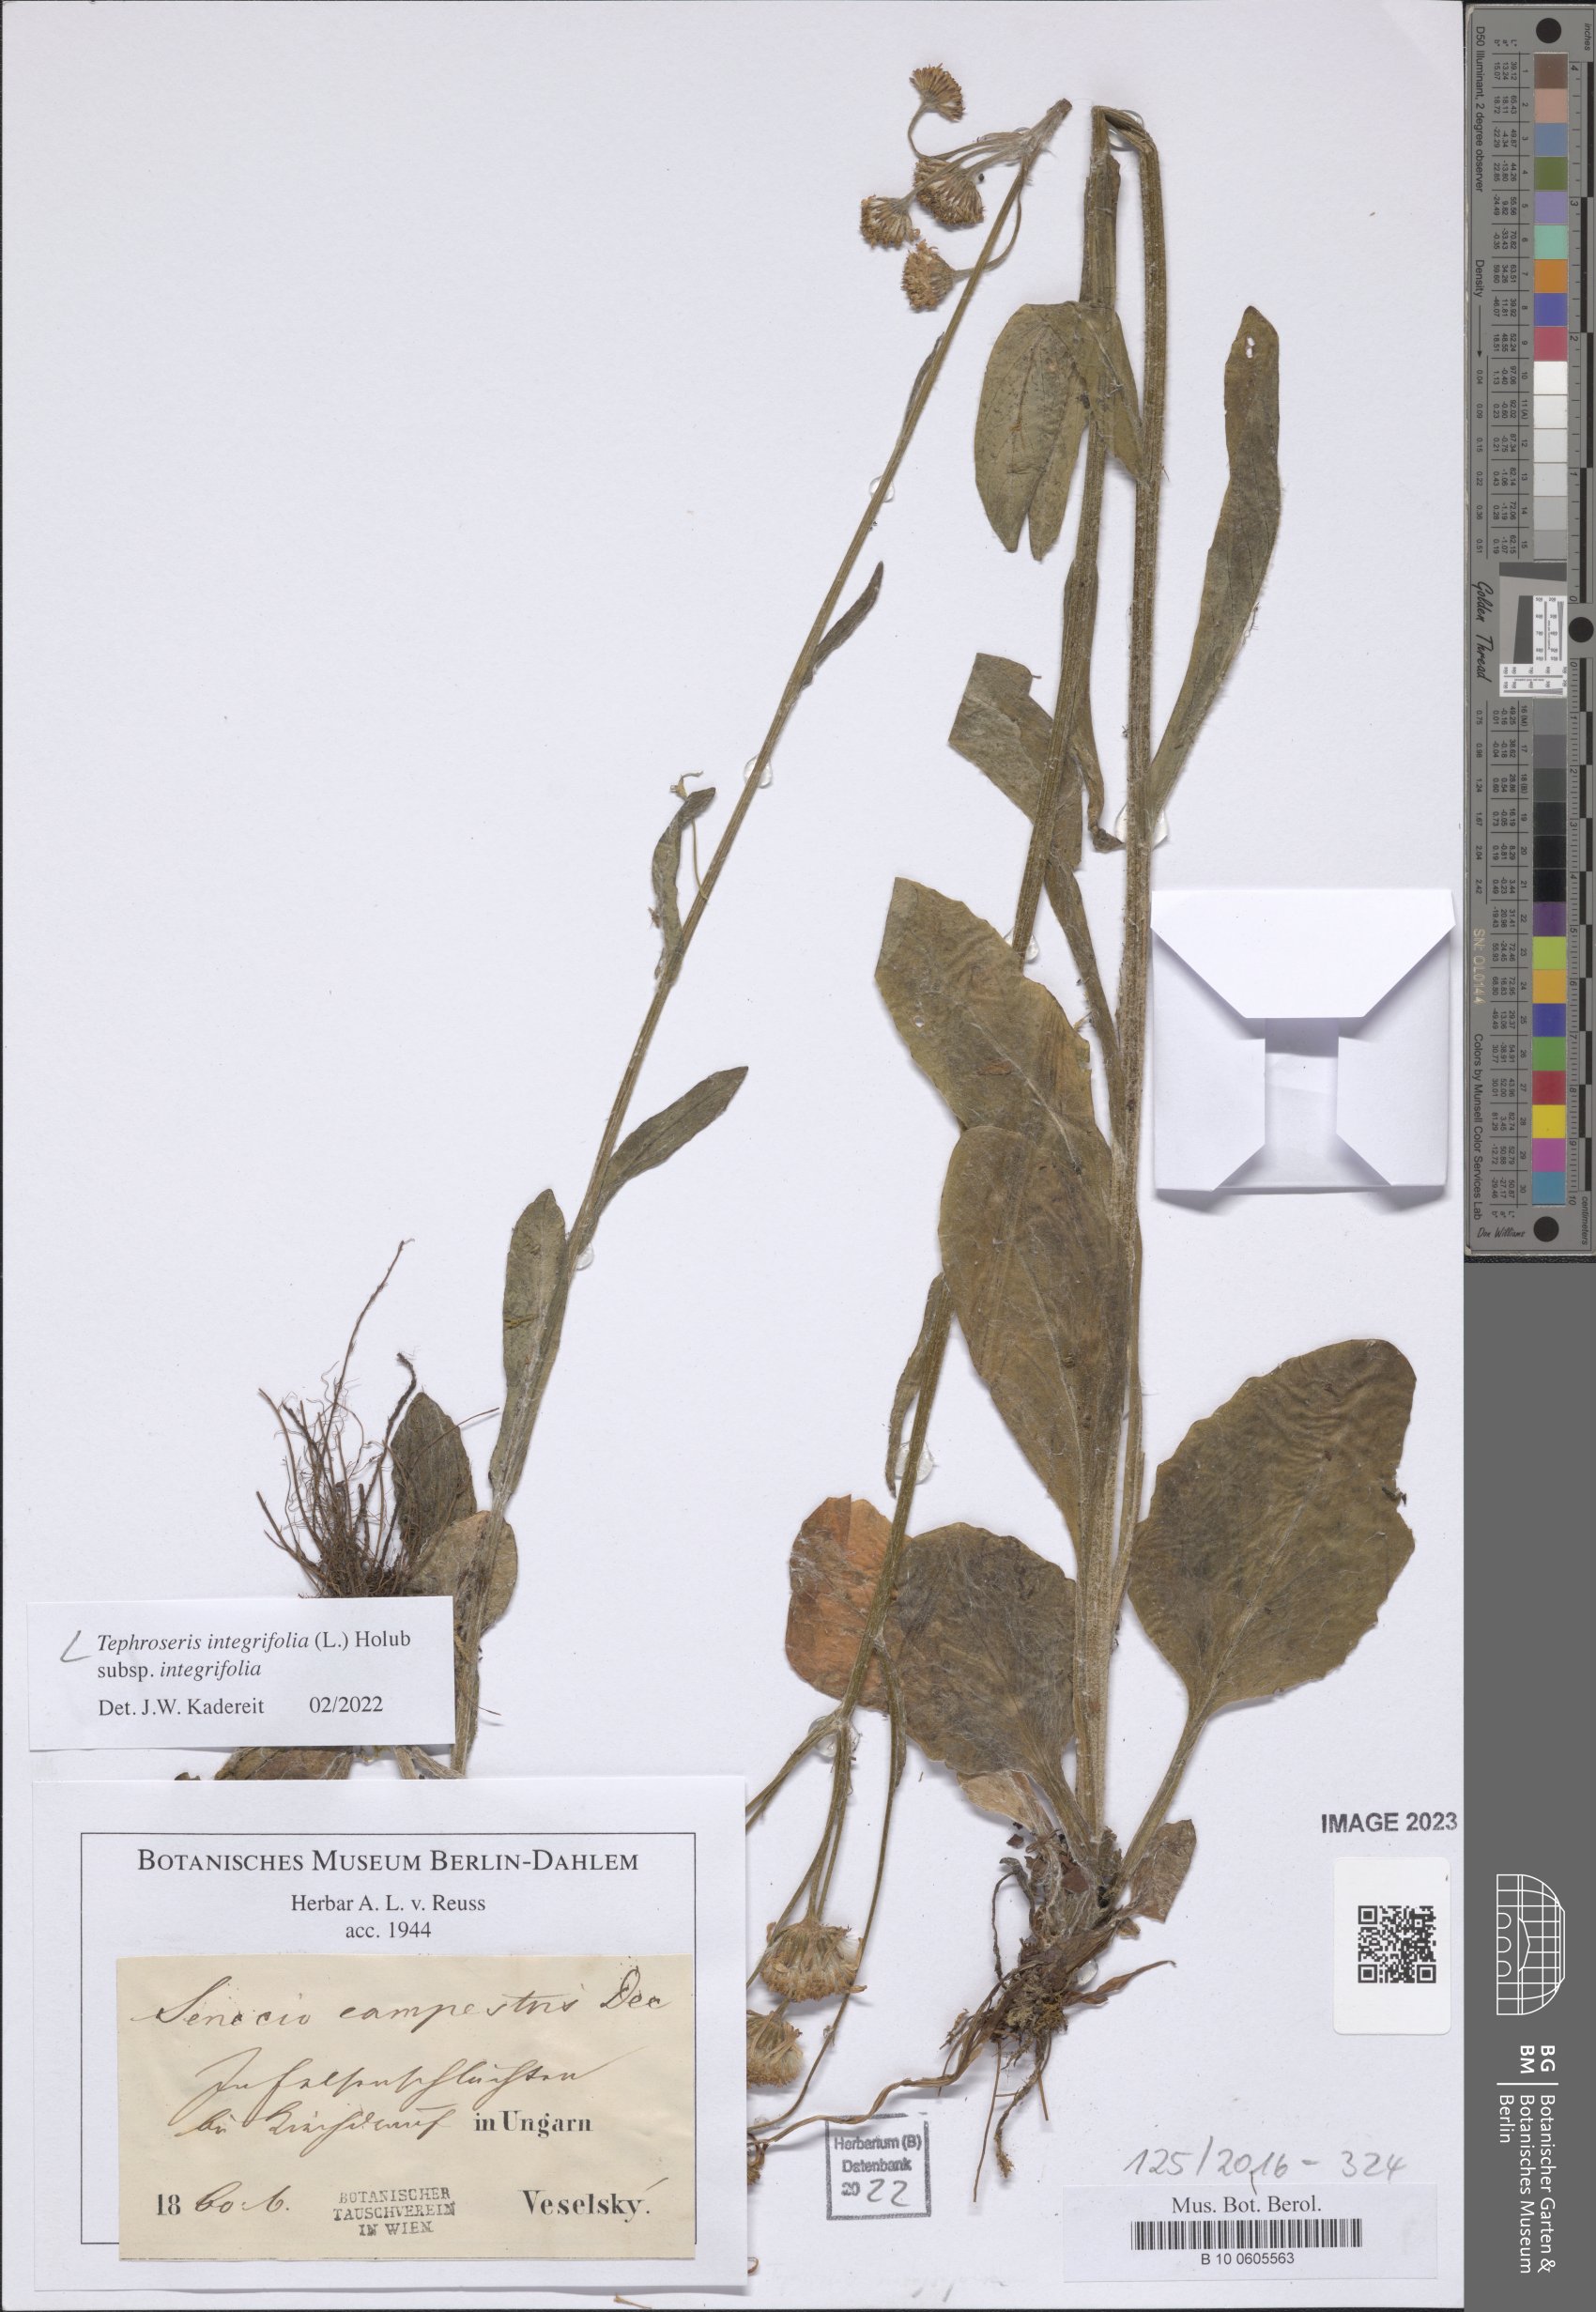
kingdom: Plantae
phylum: Tracheophyta
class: Magnoliopsida
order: Asterales
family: Asteraceae
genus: Tephroseris
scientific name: Tephroseris integrifolia
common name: Field fleawort
